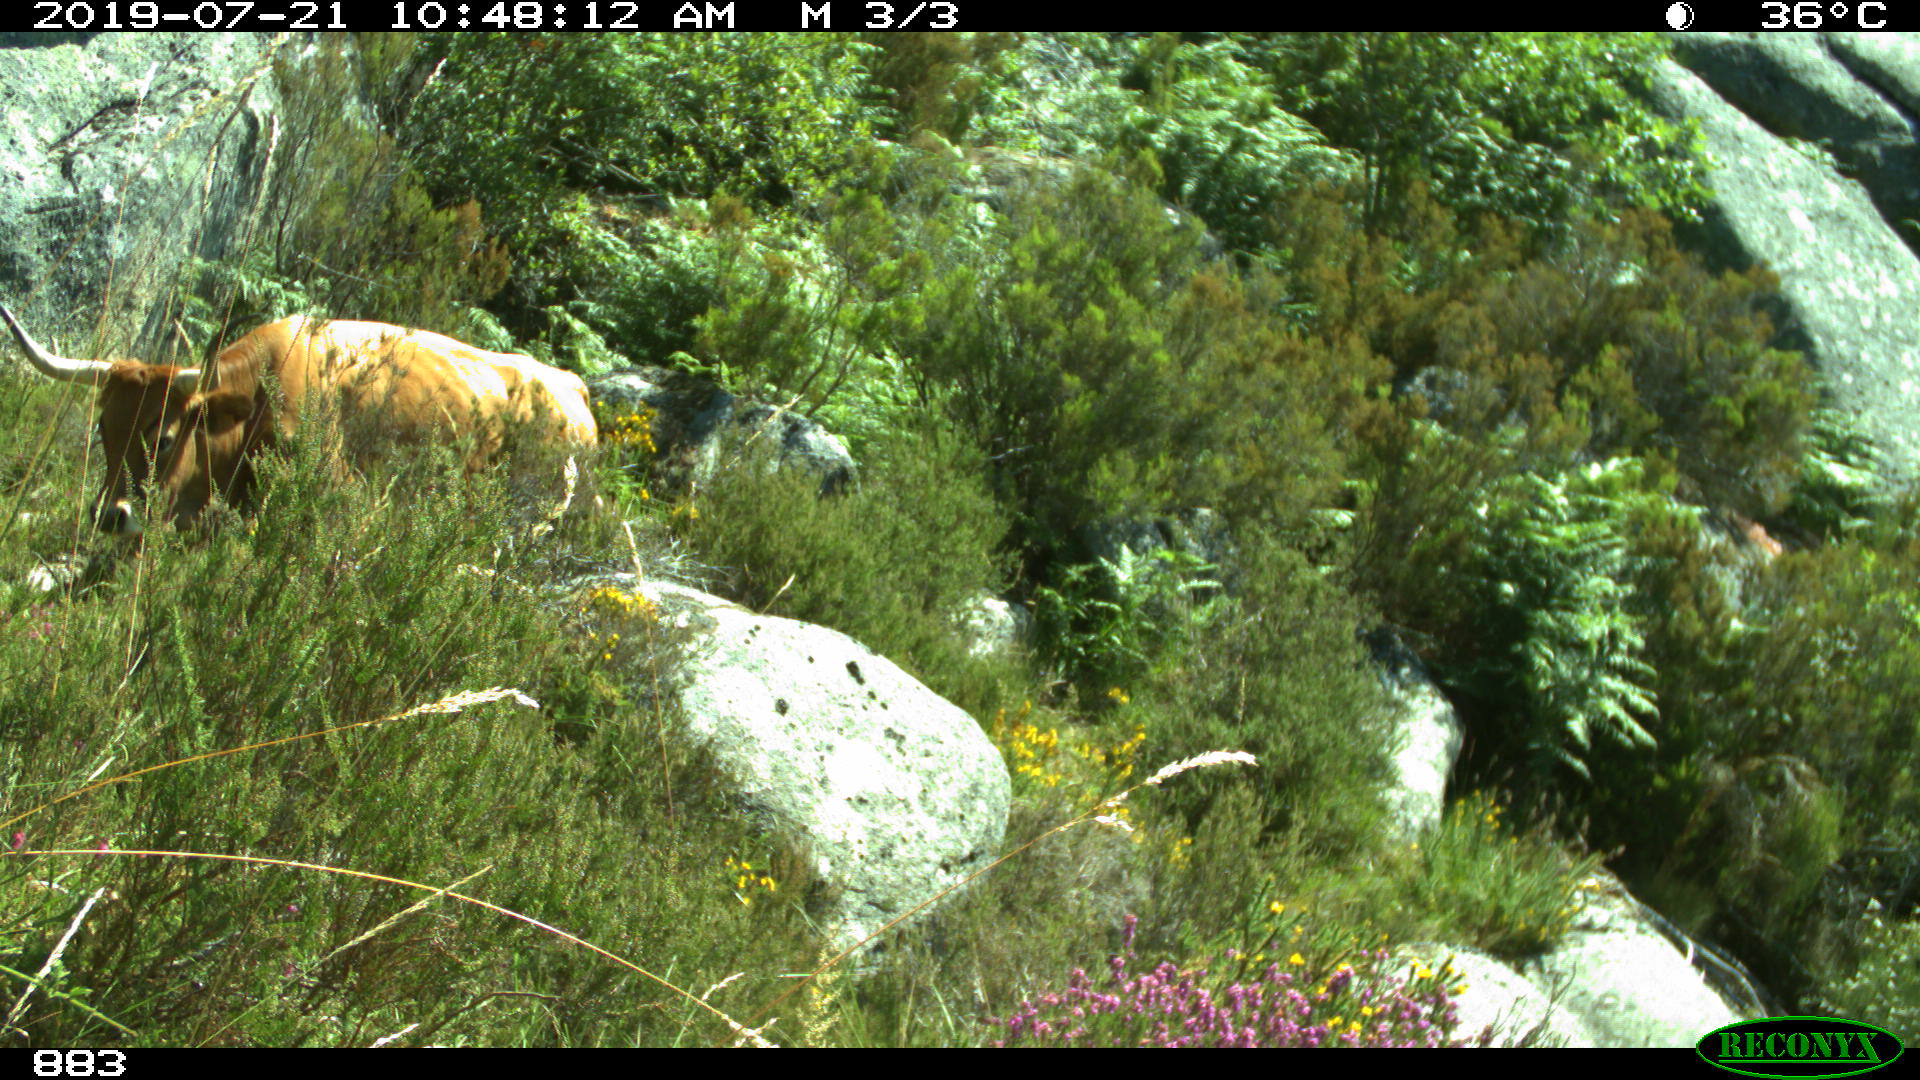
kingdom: Animalia
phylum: Chordata
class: Mammalia
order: Artiodactyla
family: Bovidae
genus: Bos
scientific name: Bos taurus
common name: Domesticated cattle
